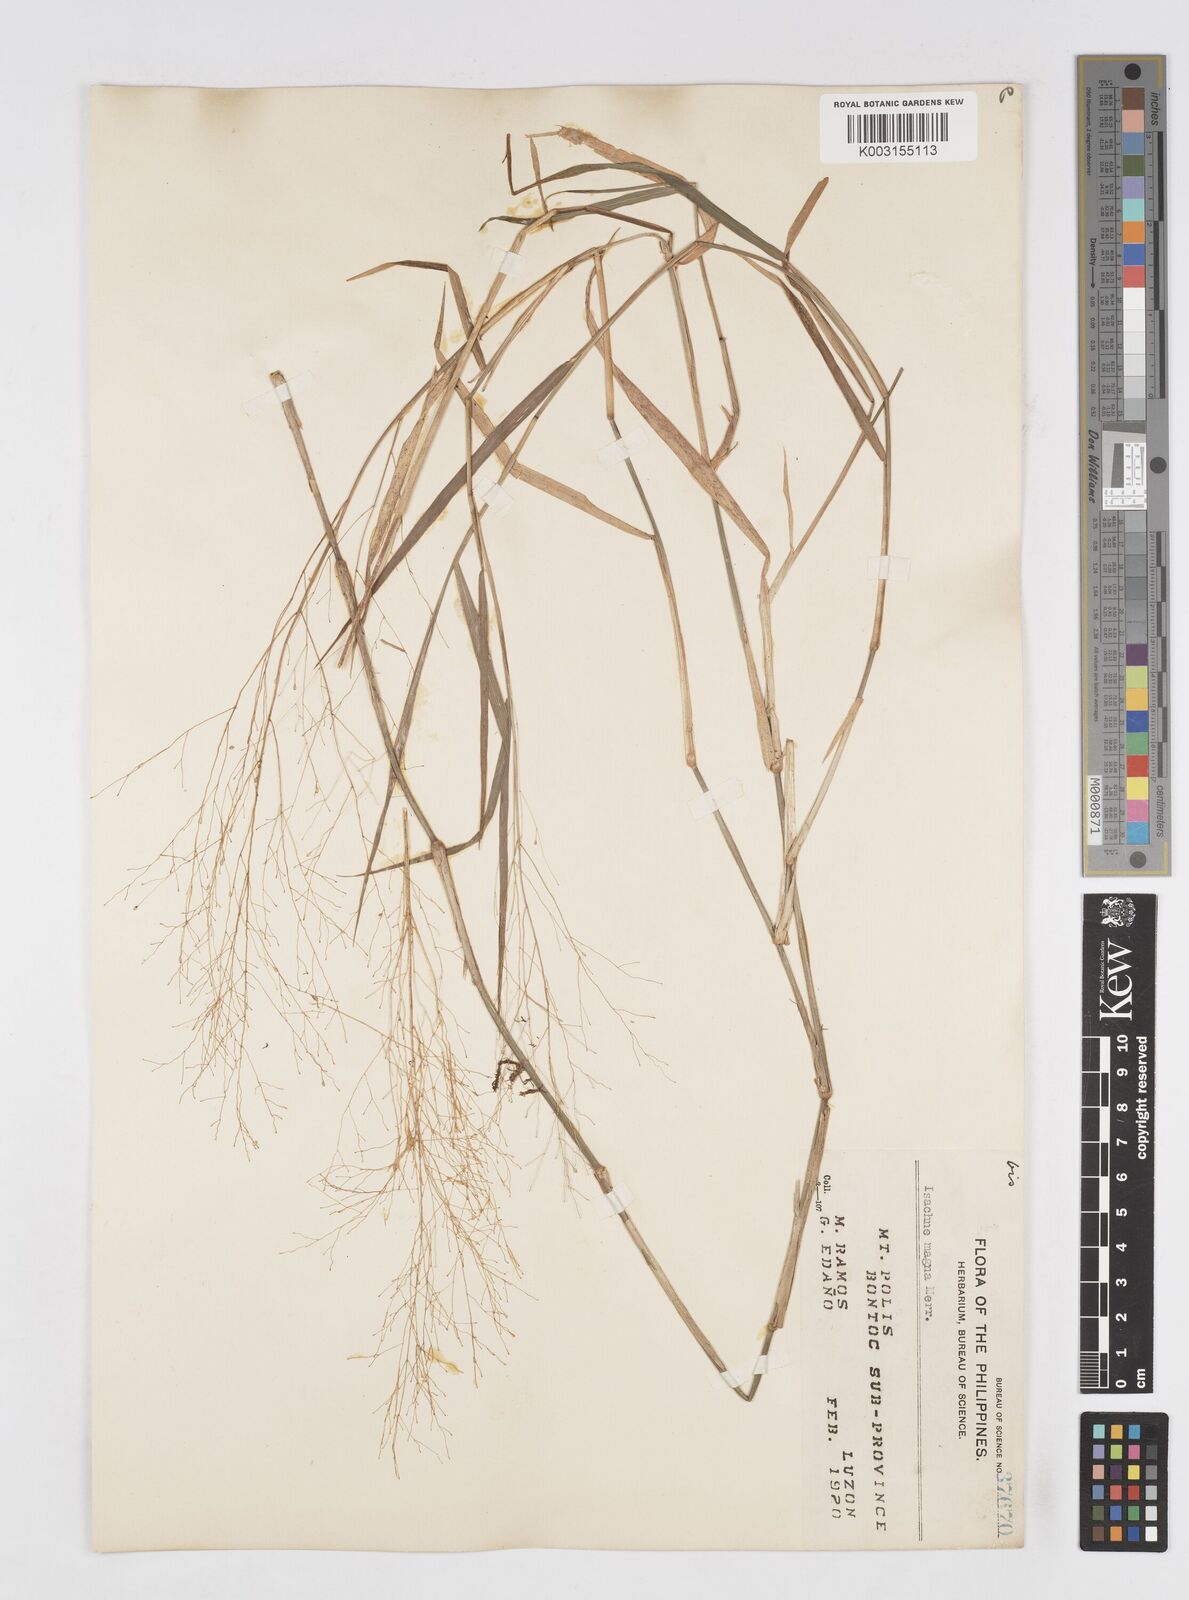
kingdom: Plantae
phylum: Tracheophyta
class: Liliopsida
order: Poales
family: Poaceae
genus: Isachne
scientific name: Isachne albens
